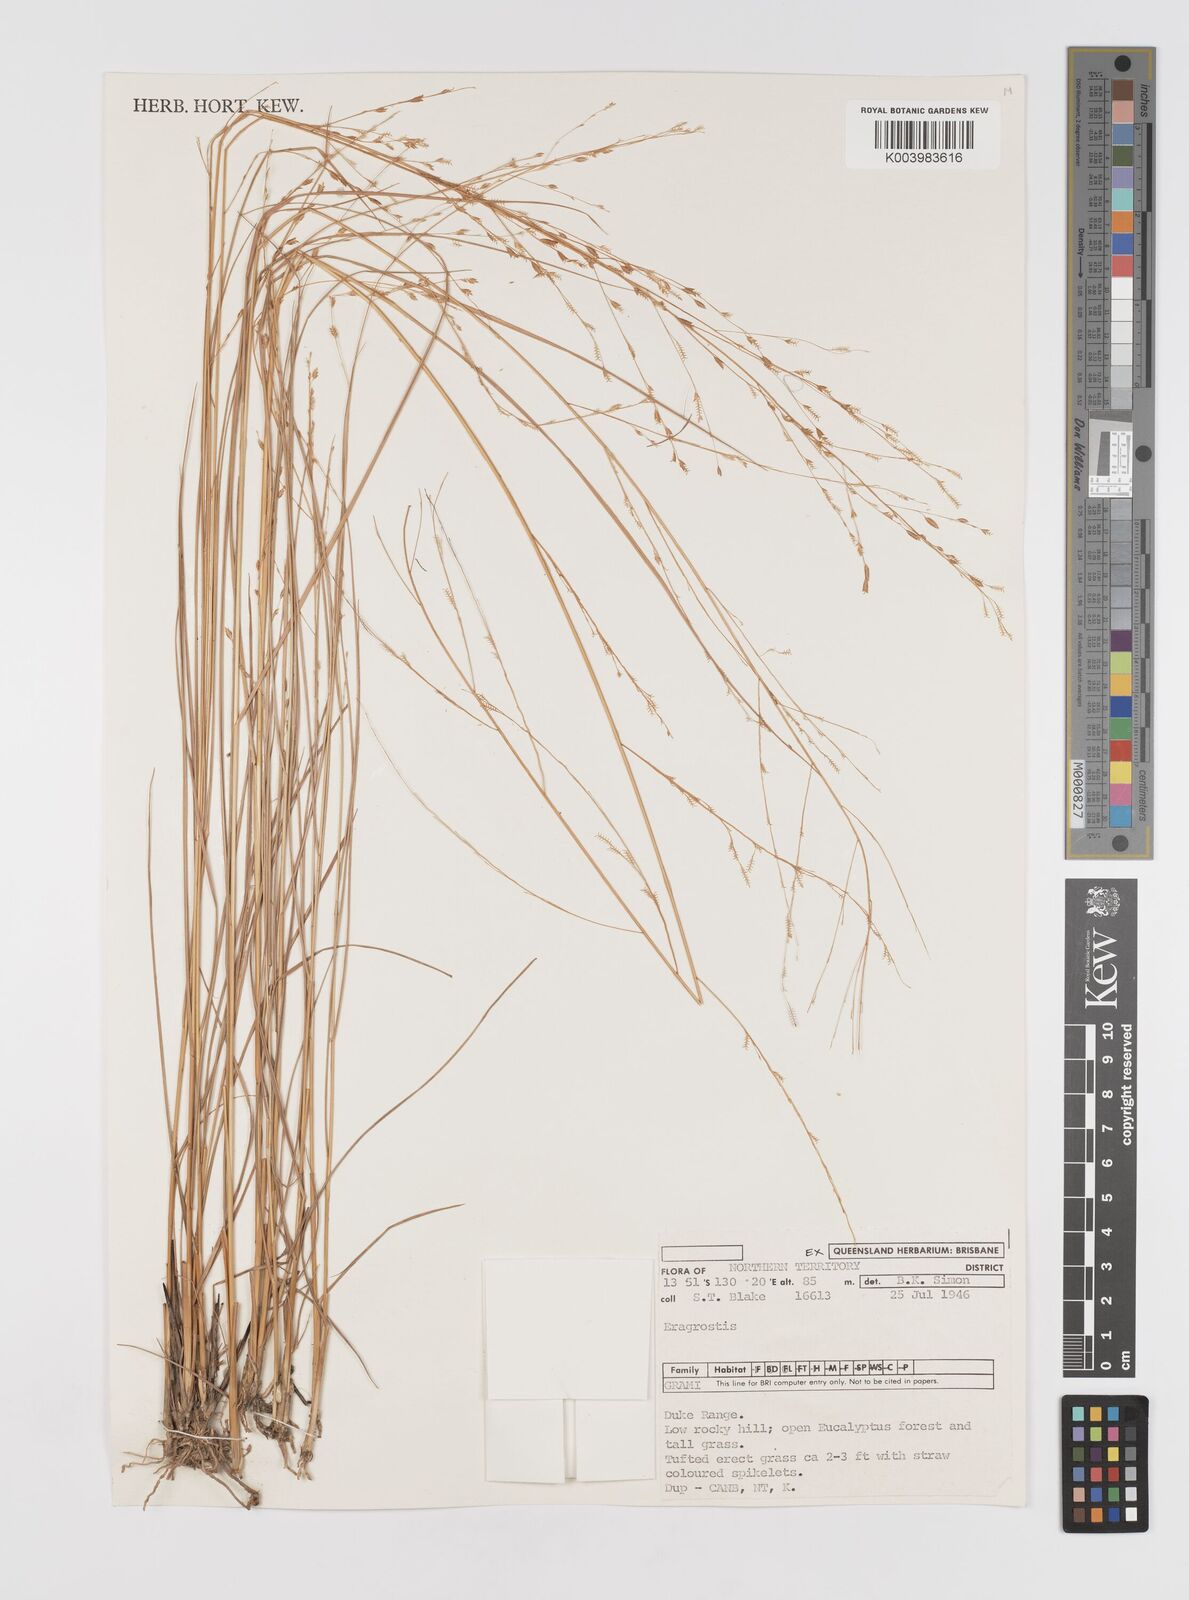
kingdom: Plantae
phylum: Tracheophyta
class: Liliopsida
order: Poales
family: Poaceae
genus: Eragrostis
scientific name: Eragrostis speciosa
